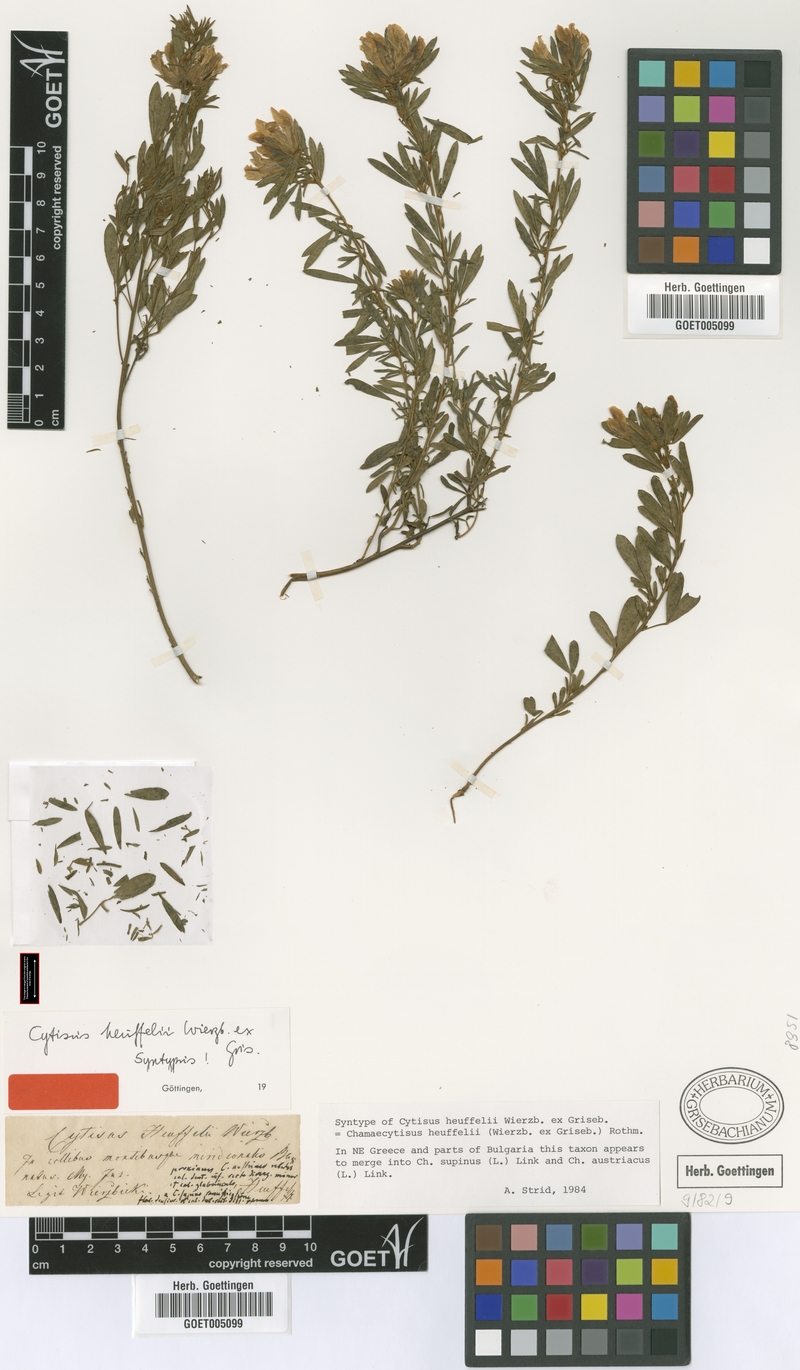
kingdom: Plantae
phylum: Tracheophyta
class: Magnoliopsida
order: Fabales
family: Fabaceae
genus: Chamaecytisus
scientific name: Chamaecytisus heuffelii
